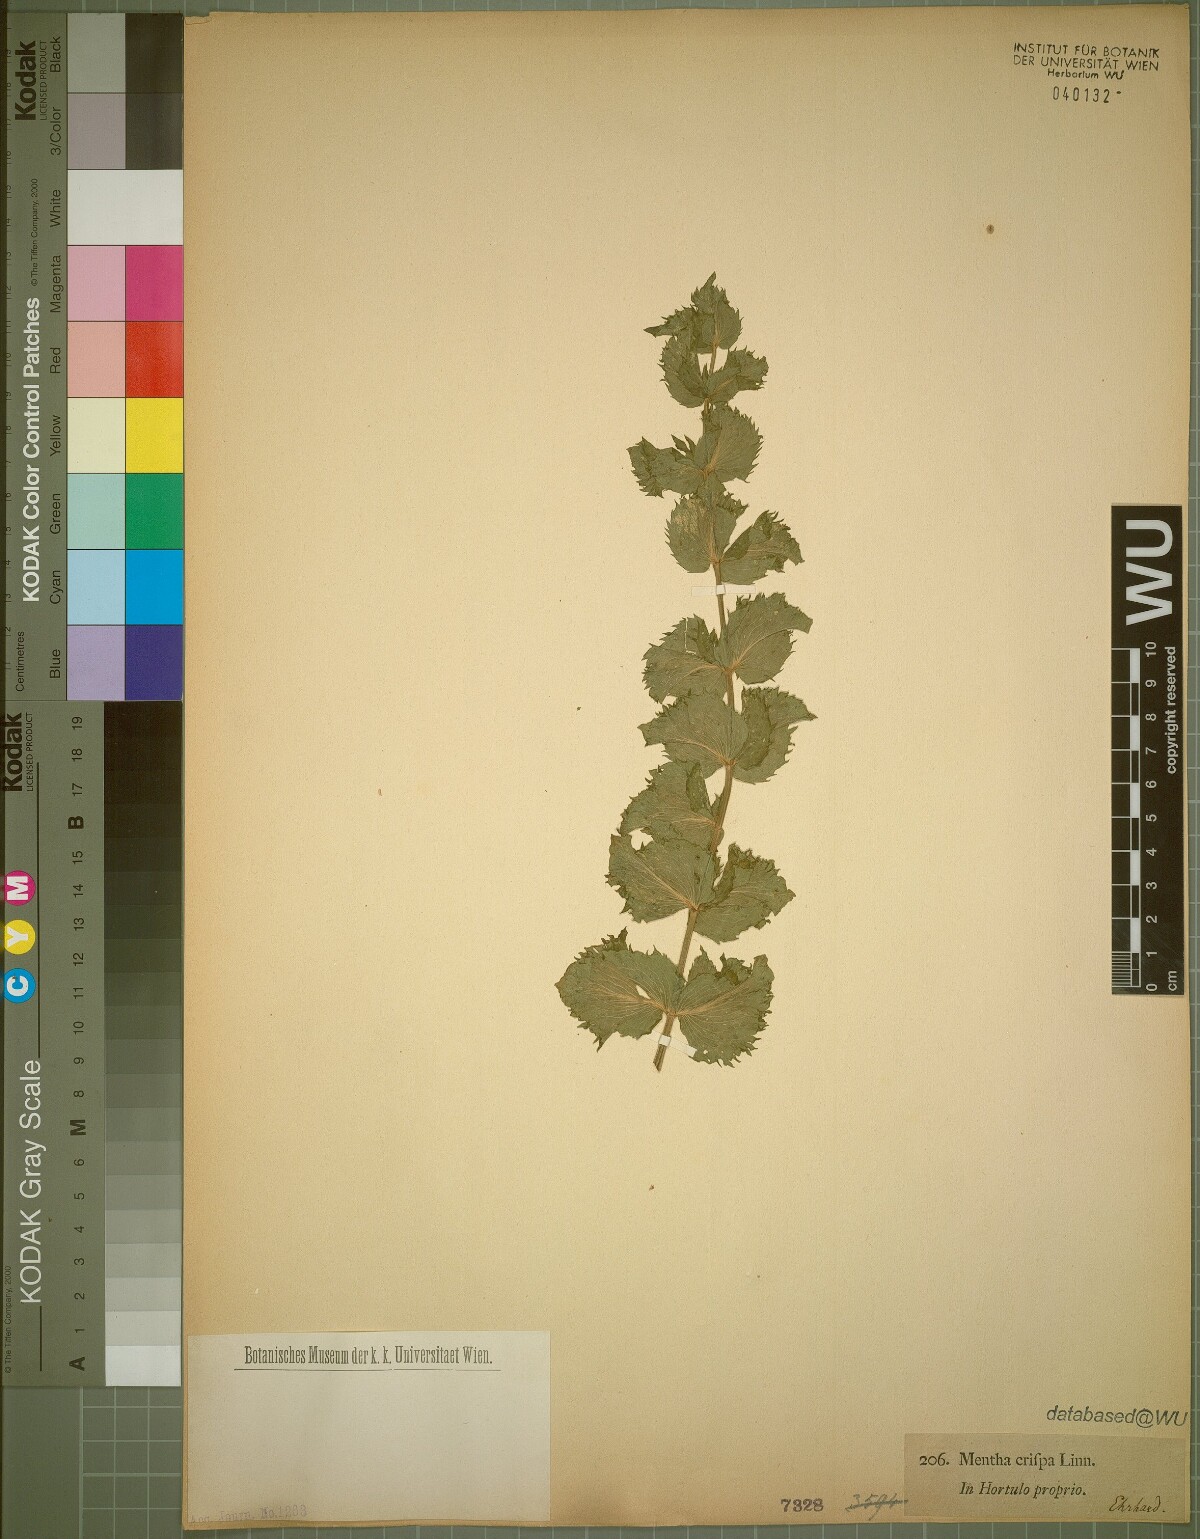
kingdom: Plantae
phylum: Tracheophyta
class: Magnoliopsida
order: Lamiales
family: Lamiaceae
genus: Mentha
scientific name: Mentha suaveolens
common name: Apple mint
